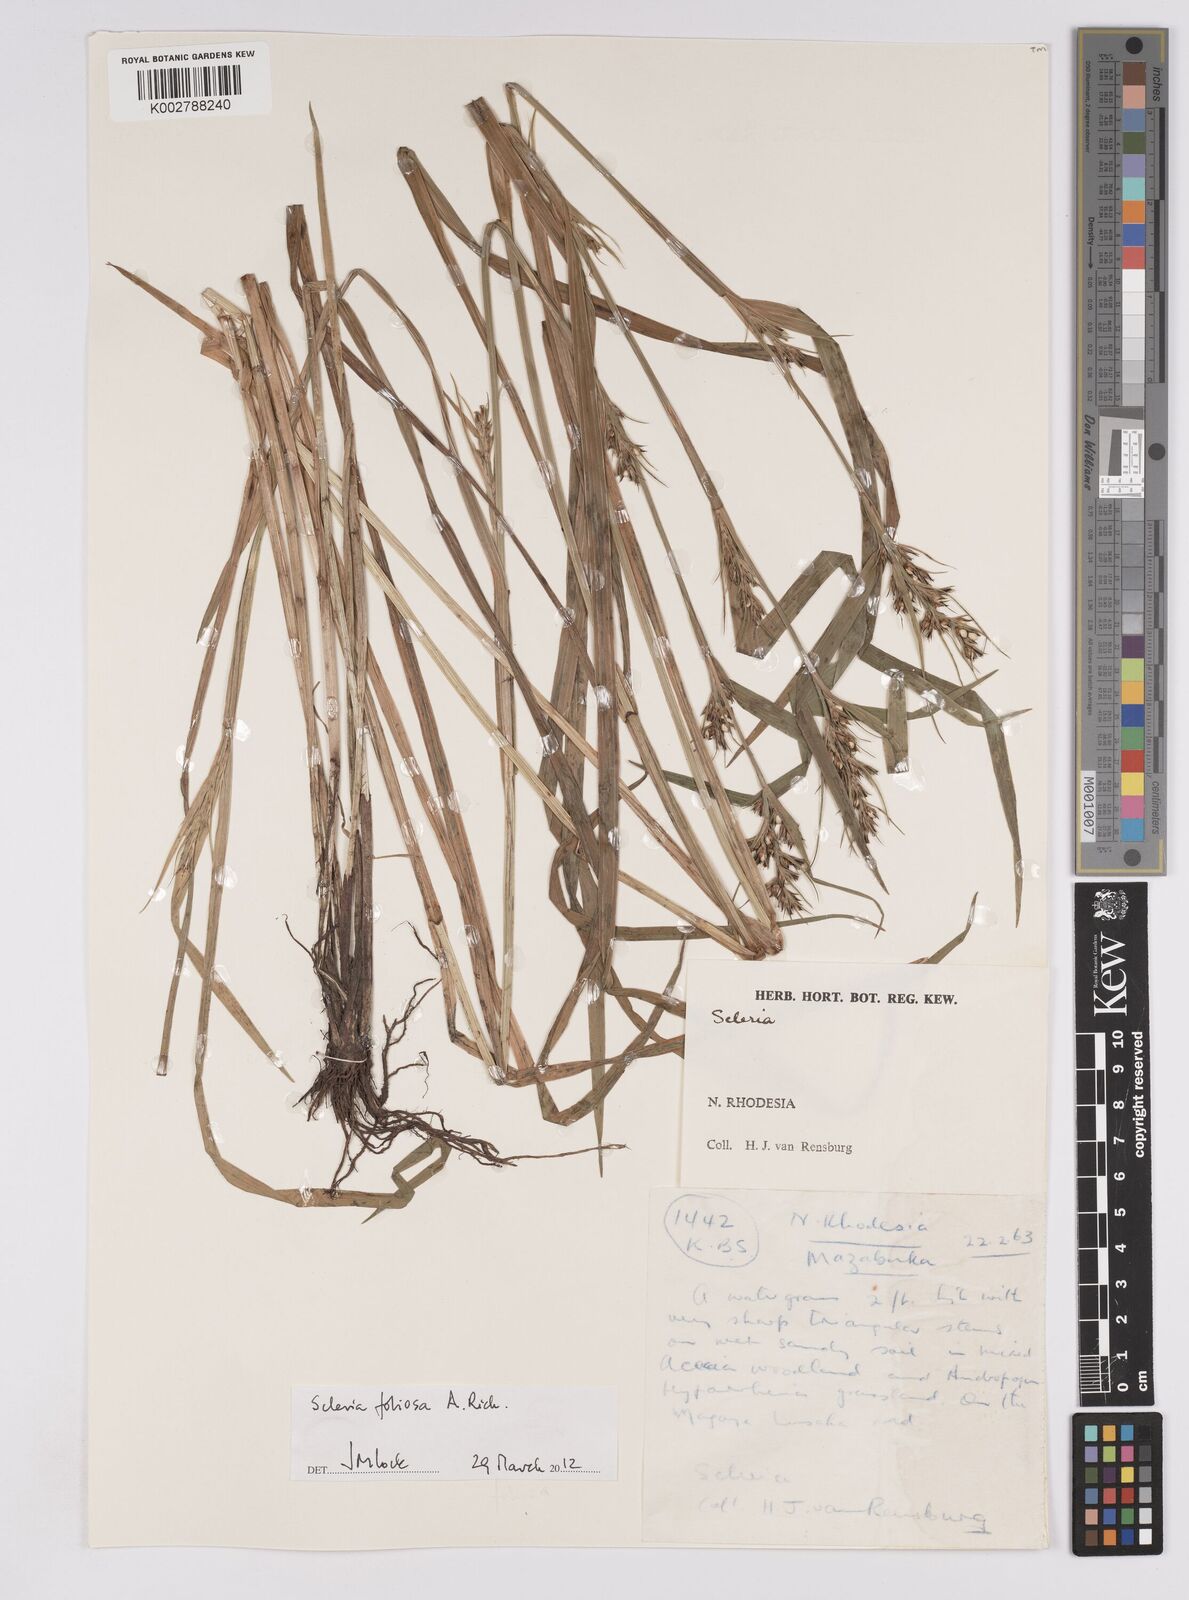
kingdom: Plantae
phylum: Tracheophyta
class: Liliopsida
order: Poales
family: Cyperaceae
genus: Scleria
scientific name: Scleria foliosa
